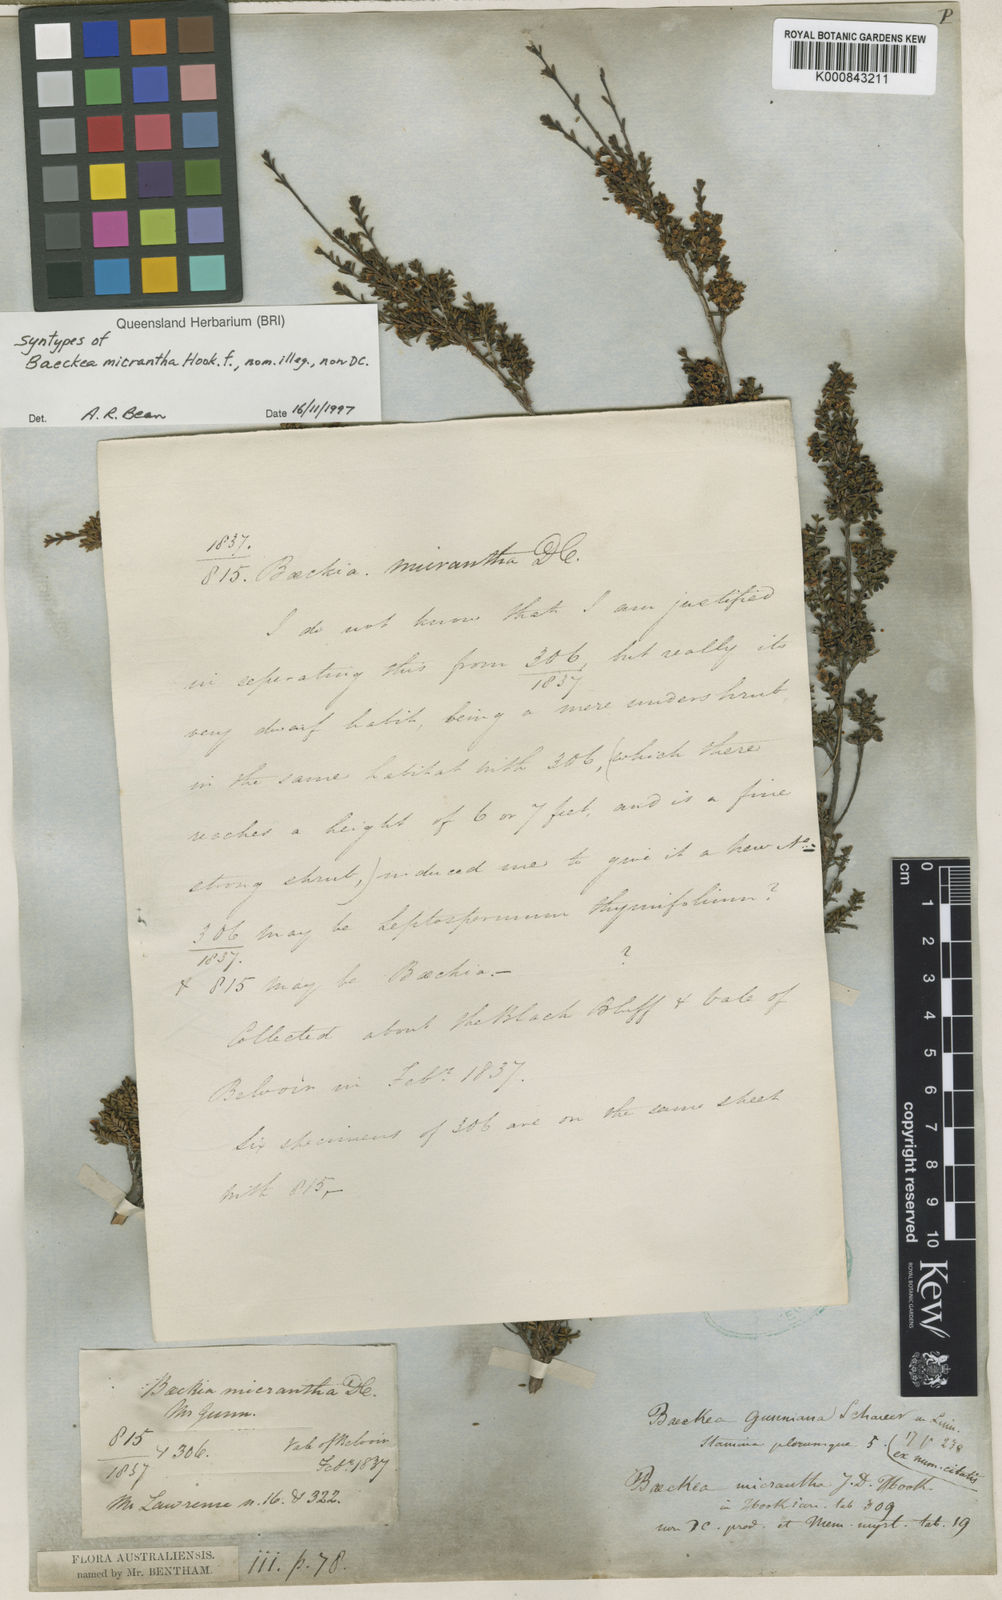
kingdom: Plantae
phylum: Tracheophyta
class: Magnoliopsida
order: Myrtales
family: Myrtaceae
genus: Baeckea
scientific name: Baeckea gunniana
